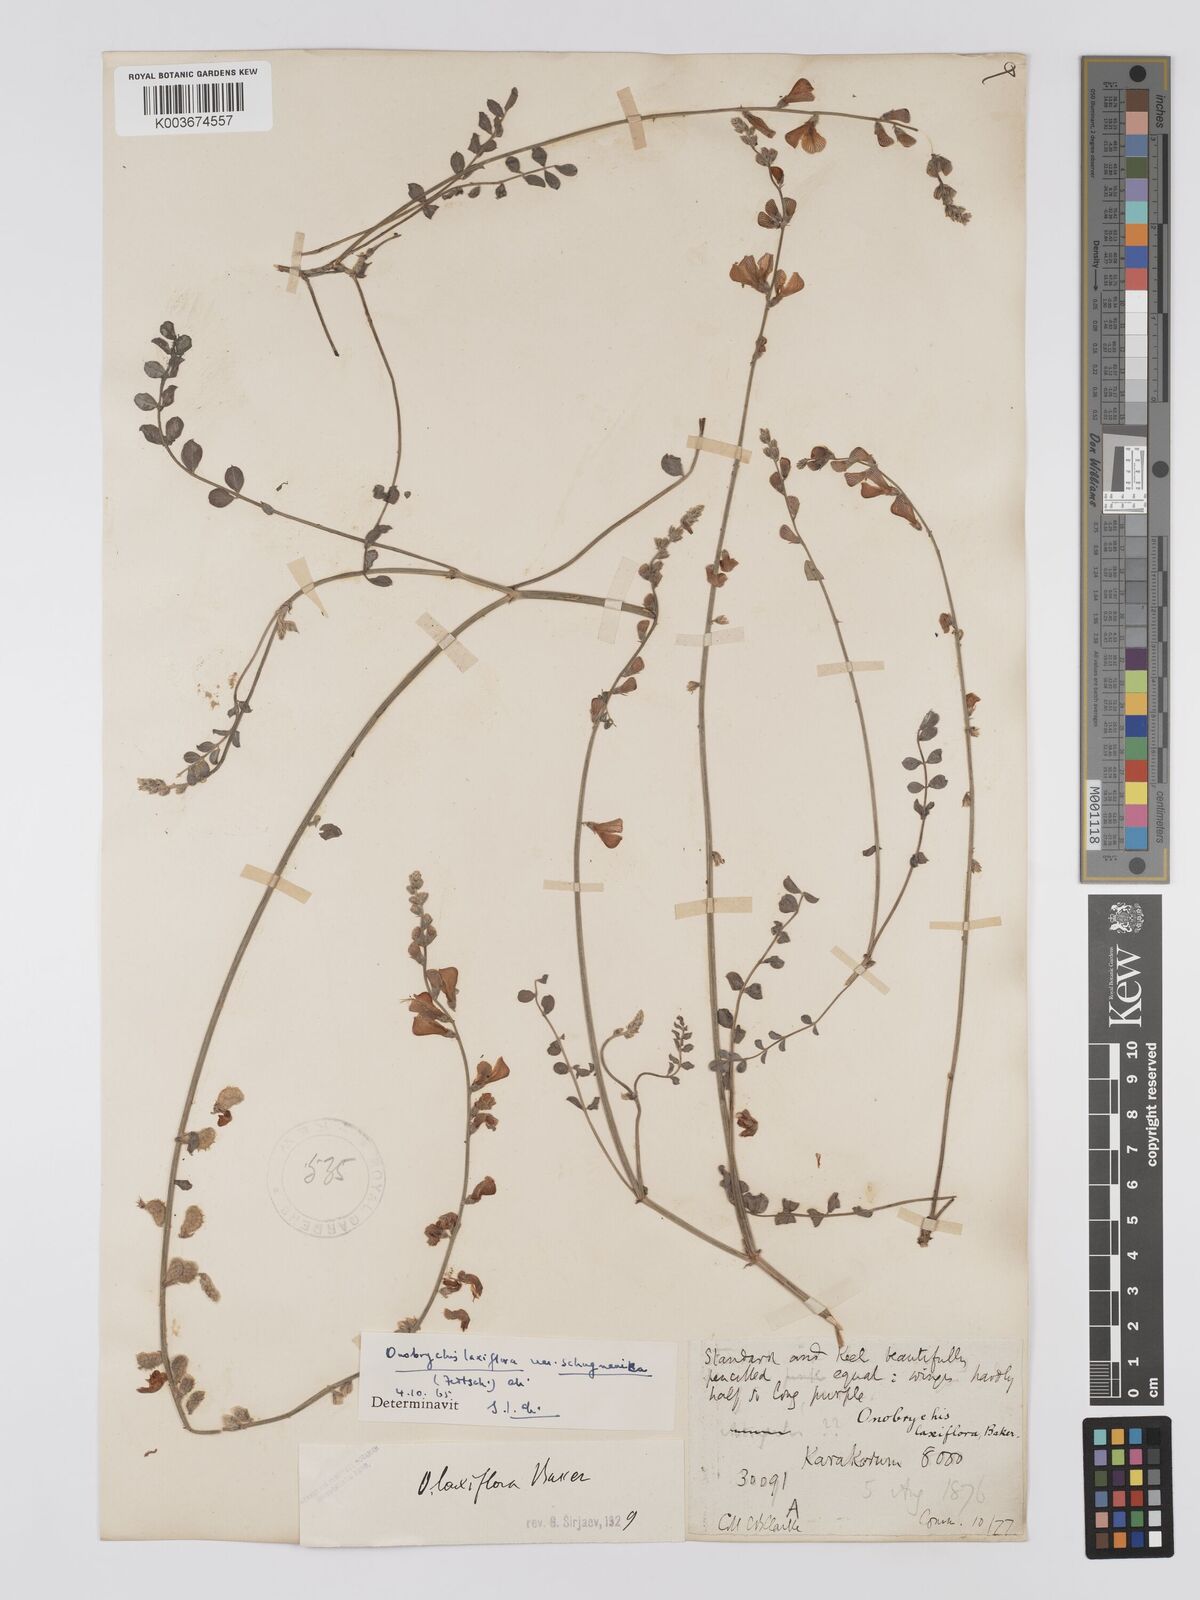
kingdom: Plantae
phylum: Tracheophyta
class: Magnoliopsida
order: Fabales
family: Fabaceae
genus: Onobrychis
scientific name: Onobrychis laxiflora
